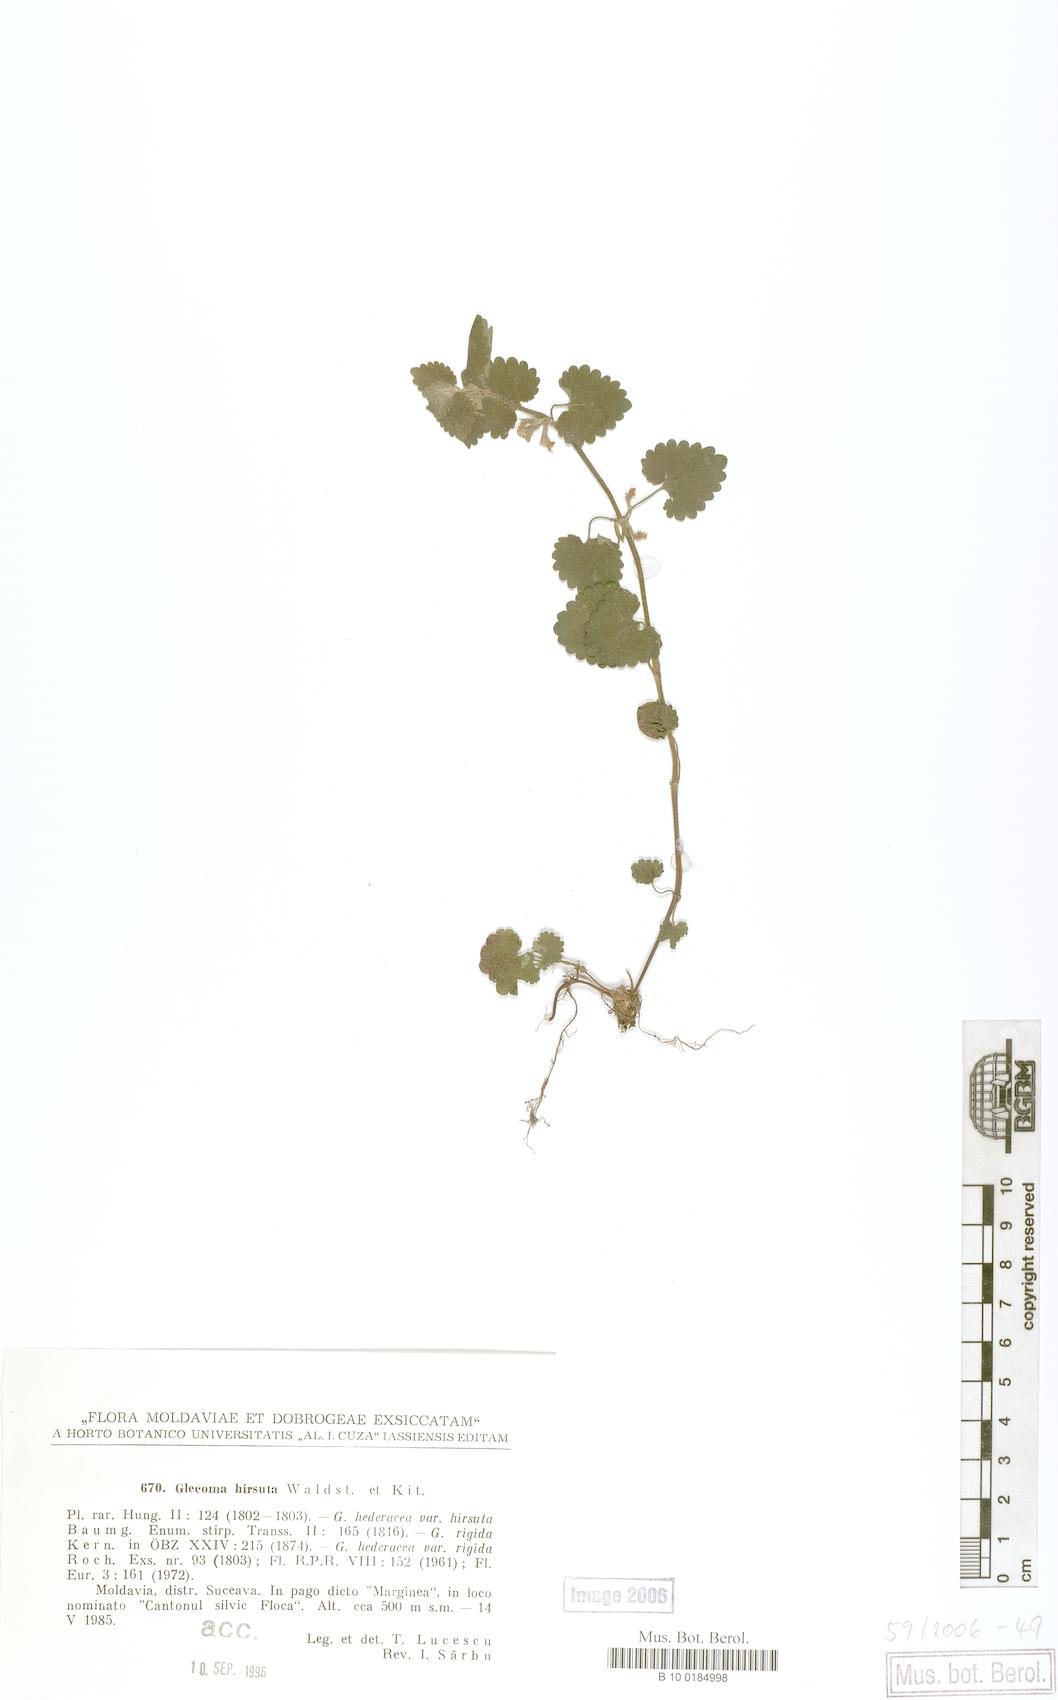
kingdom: Plantae
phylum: Tracheophyta
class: Magnoliopsida
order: Lamiales
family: Lamiaceae
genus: Glechoma
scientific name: Glechoma hirsuta
